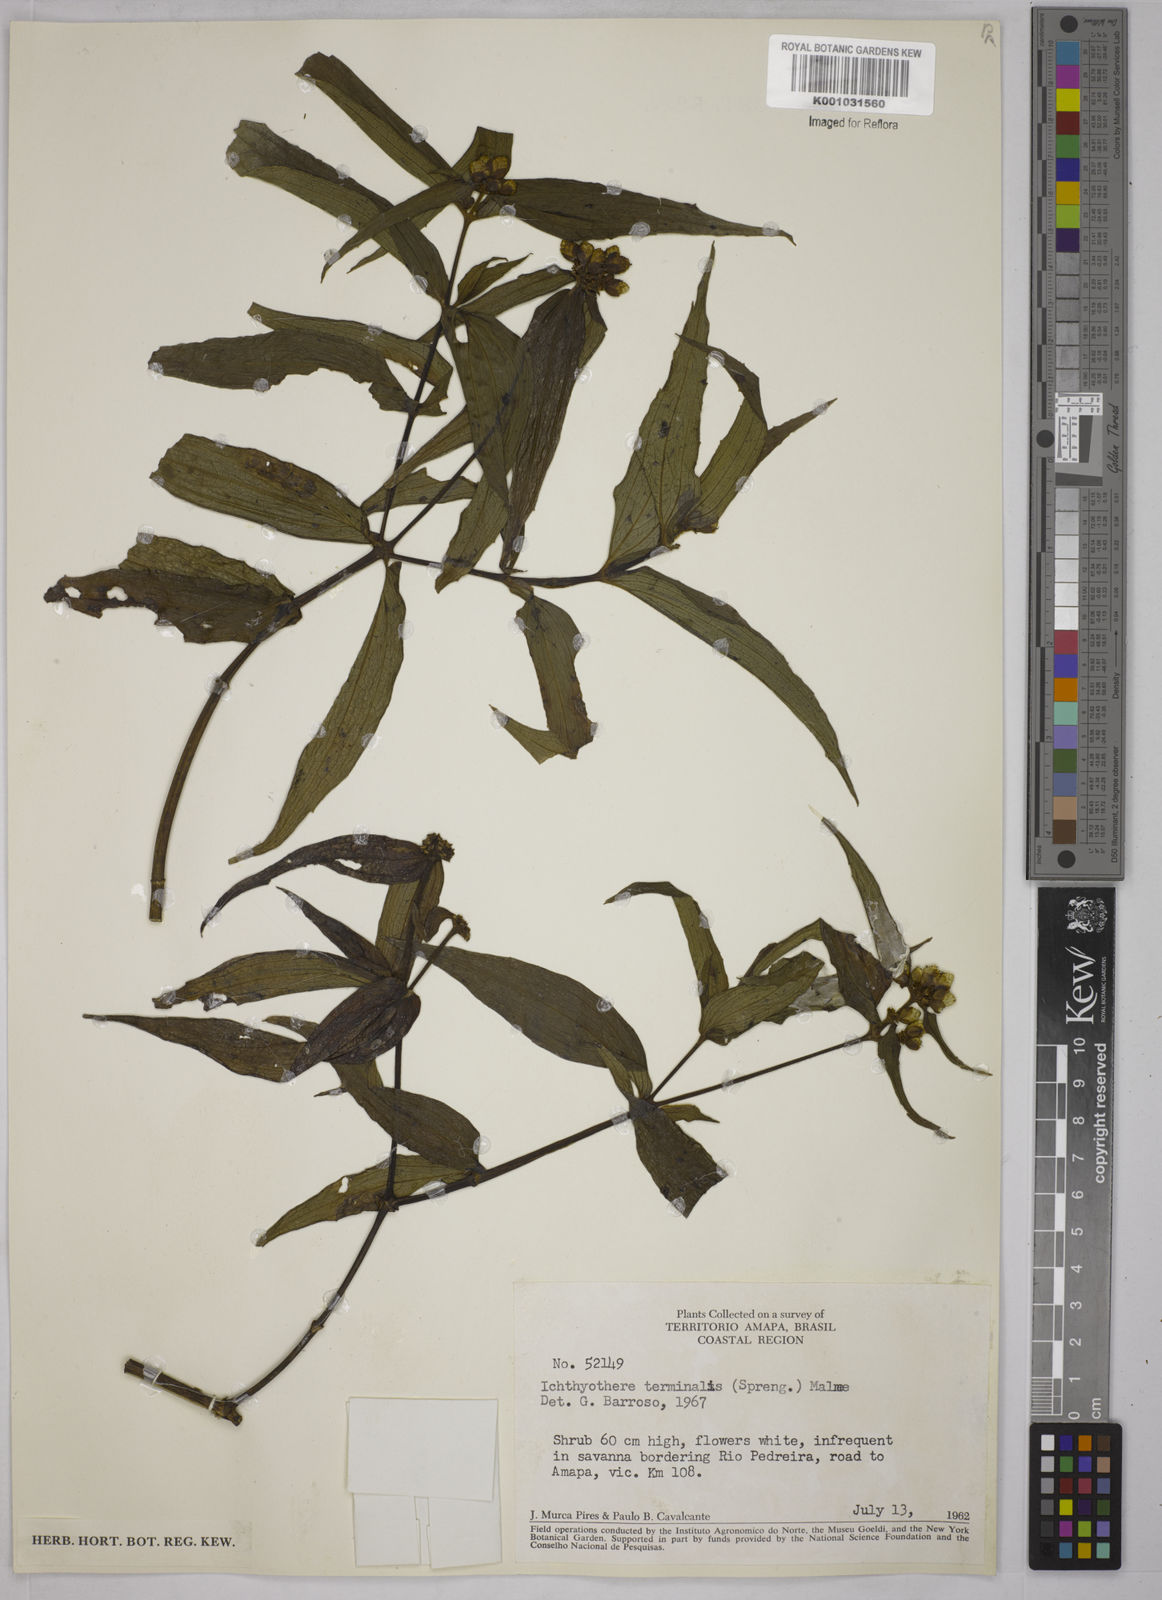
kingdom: Plantae
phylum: Tracheophyta
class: Magnoliopsida
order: Asterales
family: Asteraceae
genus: Ichthyothere
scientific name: Ichthyothere cunabi
